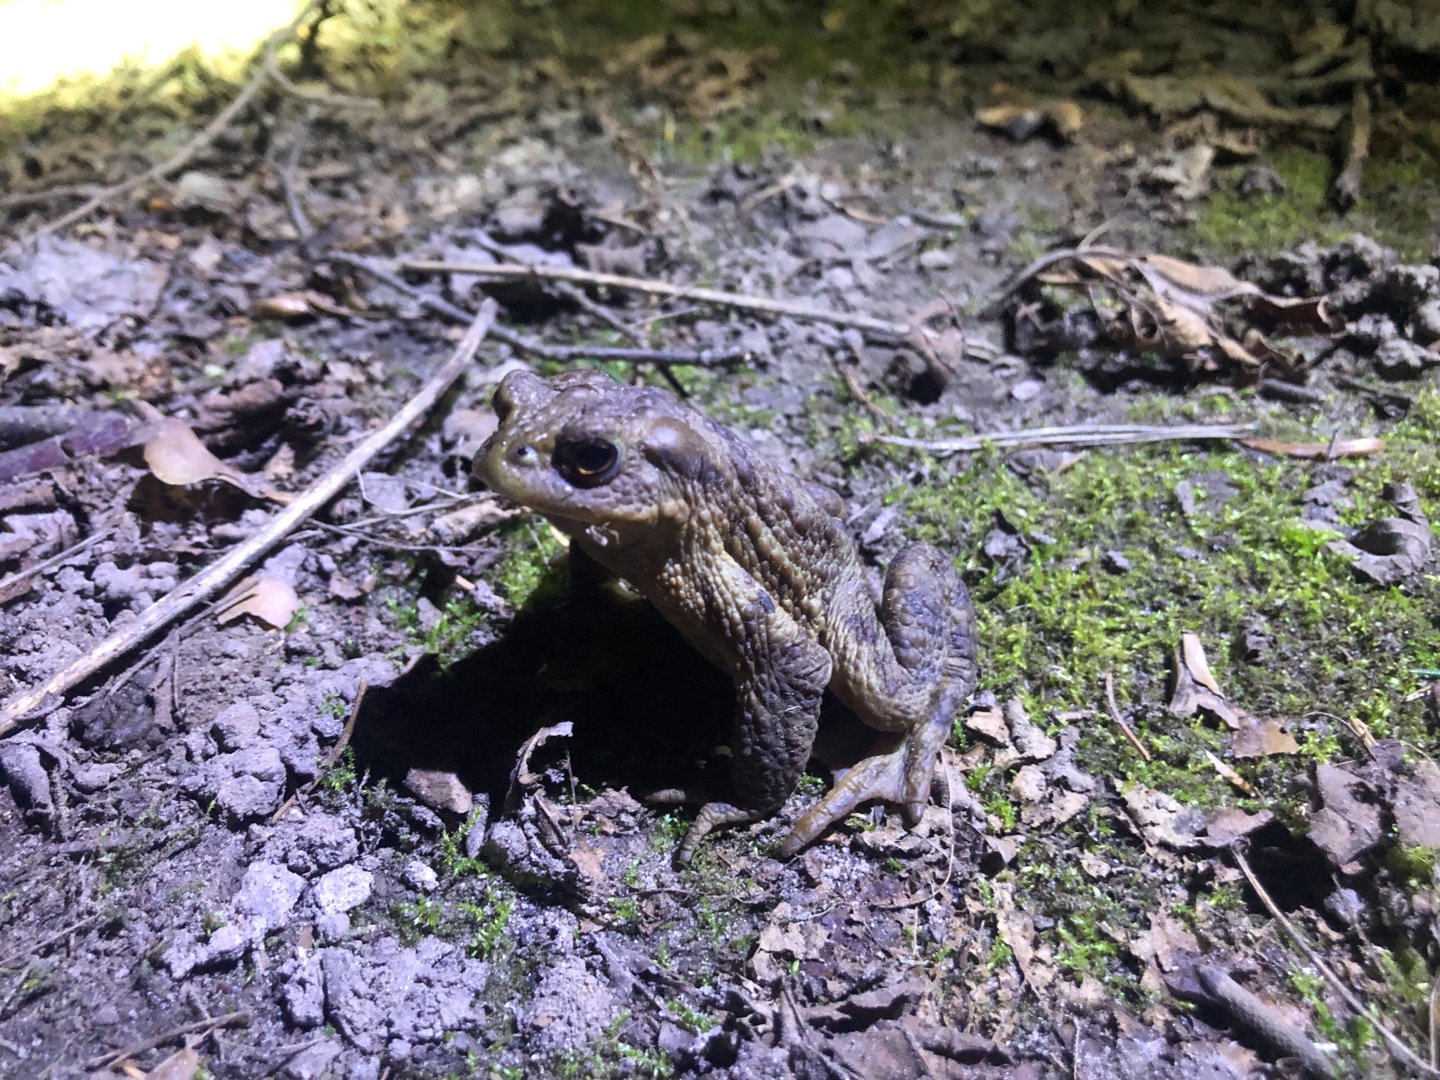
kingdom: Animalia
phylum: Chordata
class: Amphibia
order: Anura
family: Bufonidae
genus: Bufo
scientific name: Bufo bufo
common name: Skrubtudse
